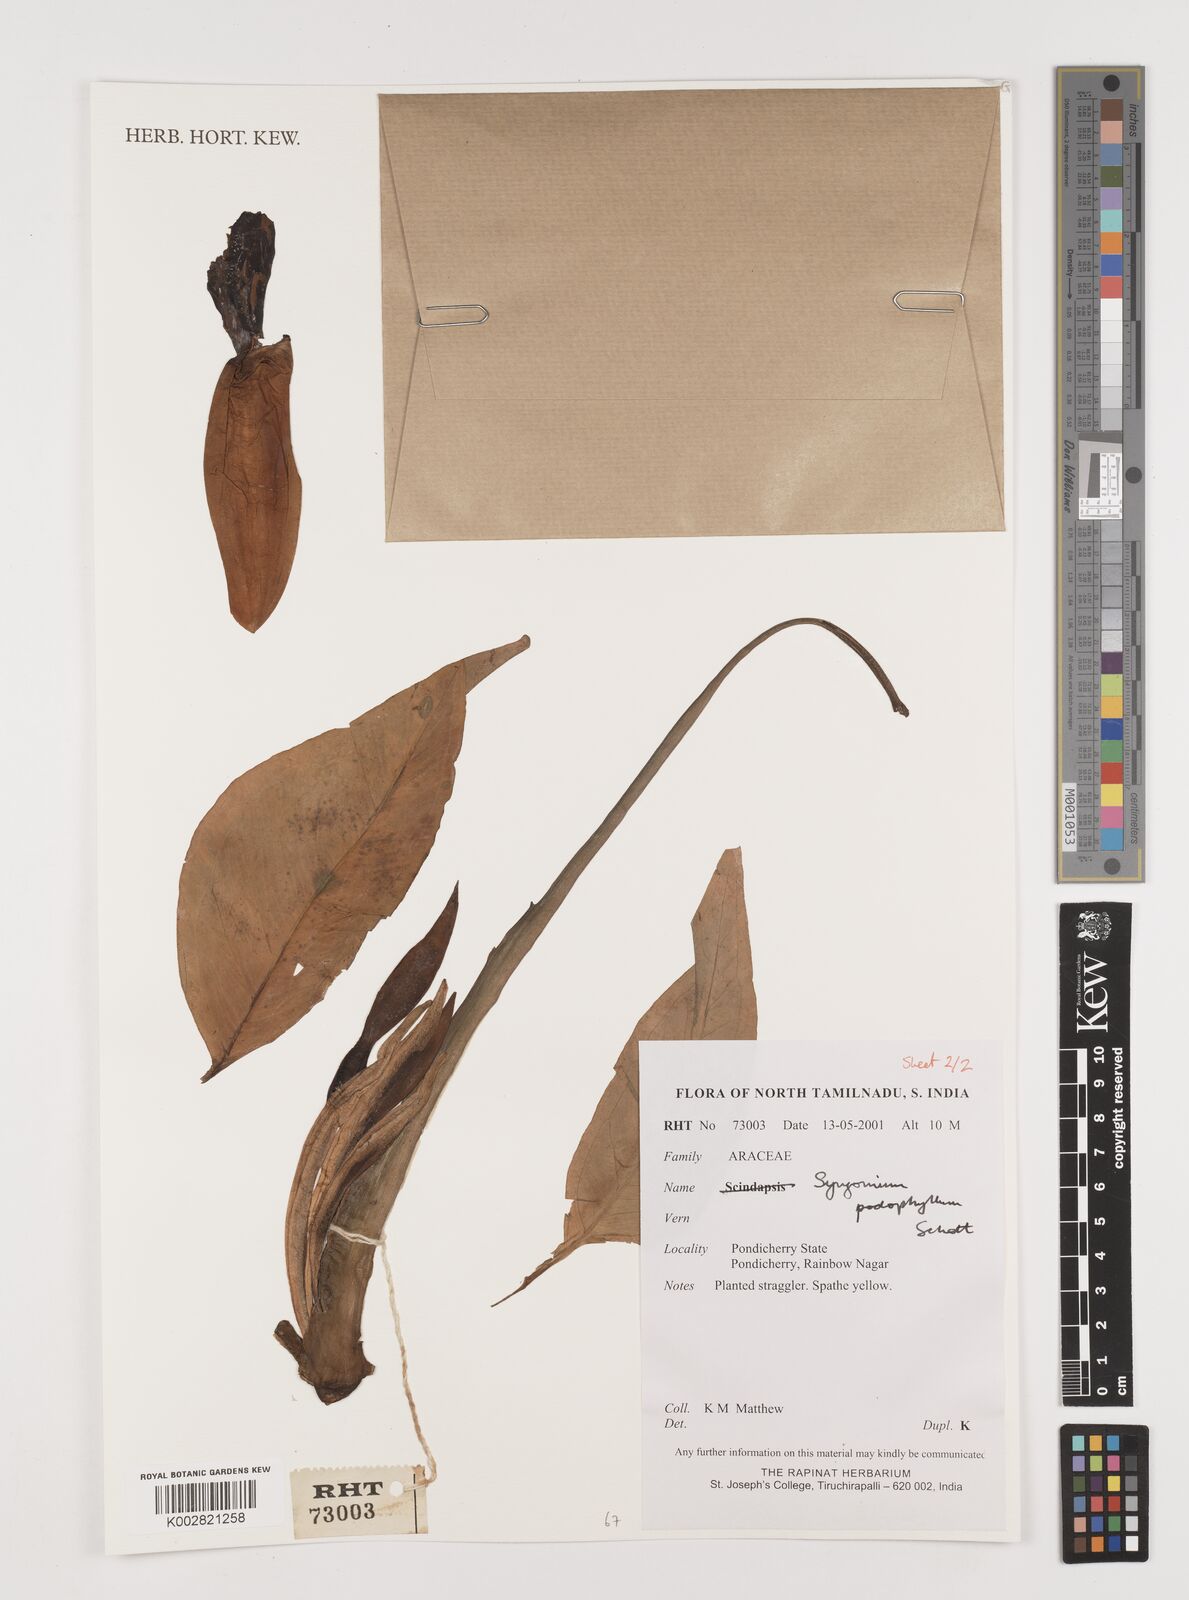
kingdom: Plantae
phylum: Tracheophyta
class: Liliopsida
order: Alismatales
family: Araceae
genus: Syngonium
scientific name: Syngonium podophyllum
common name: American evergreen
